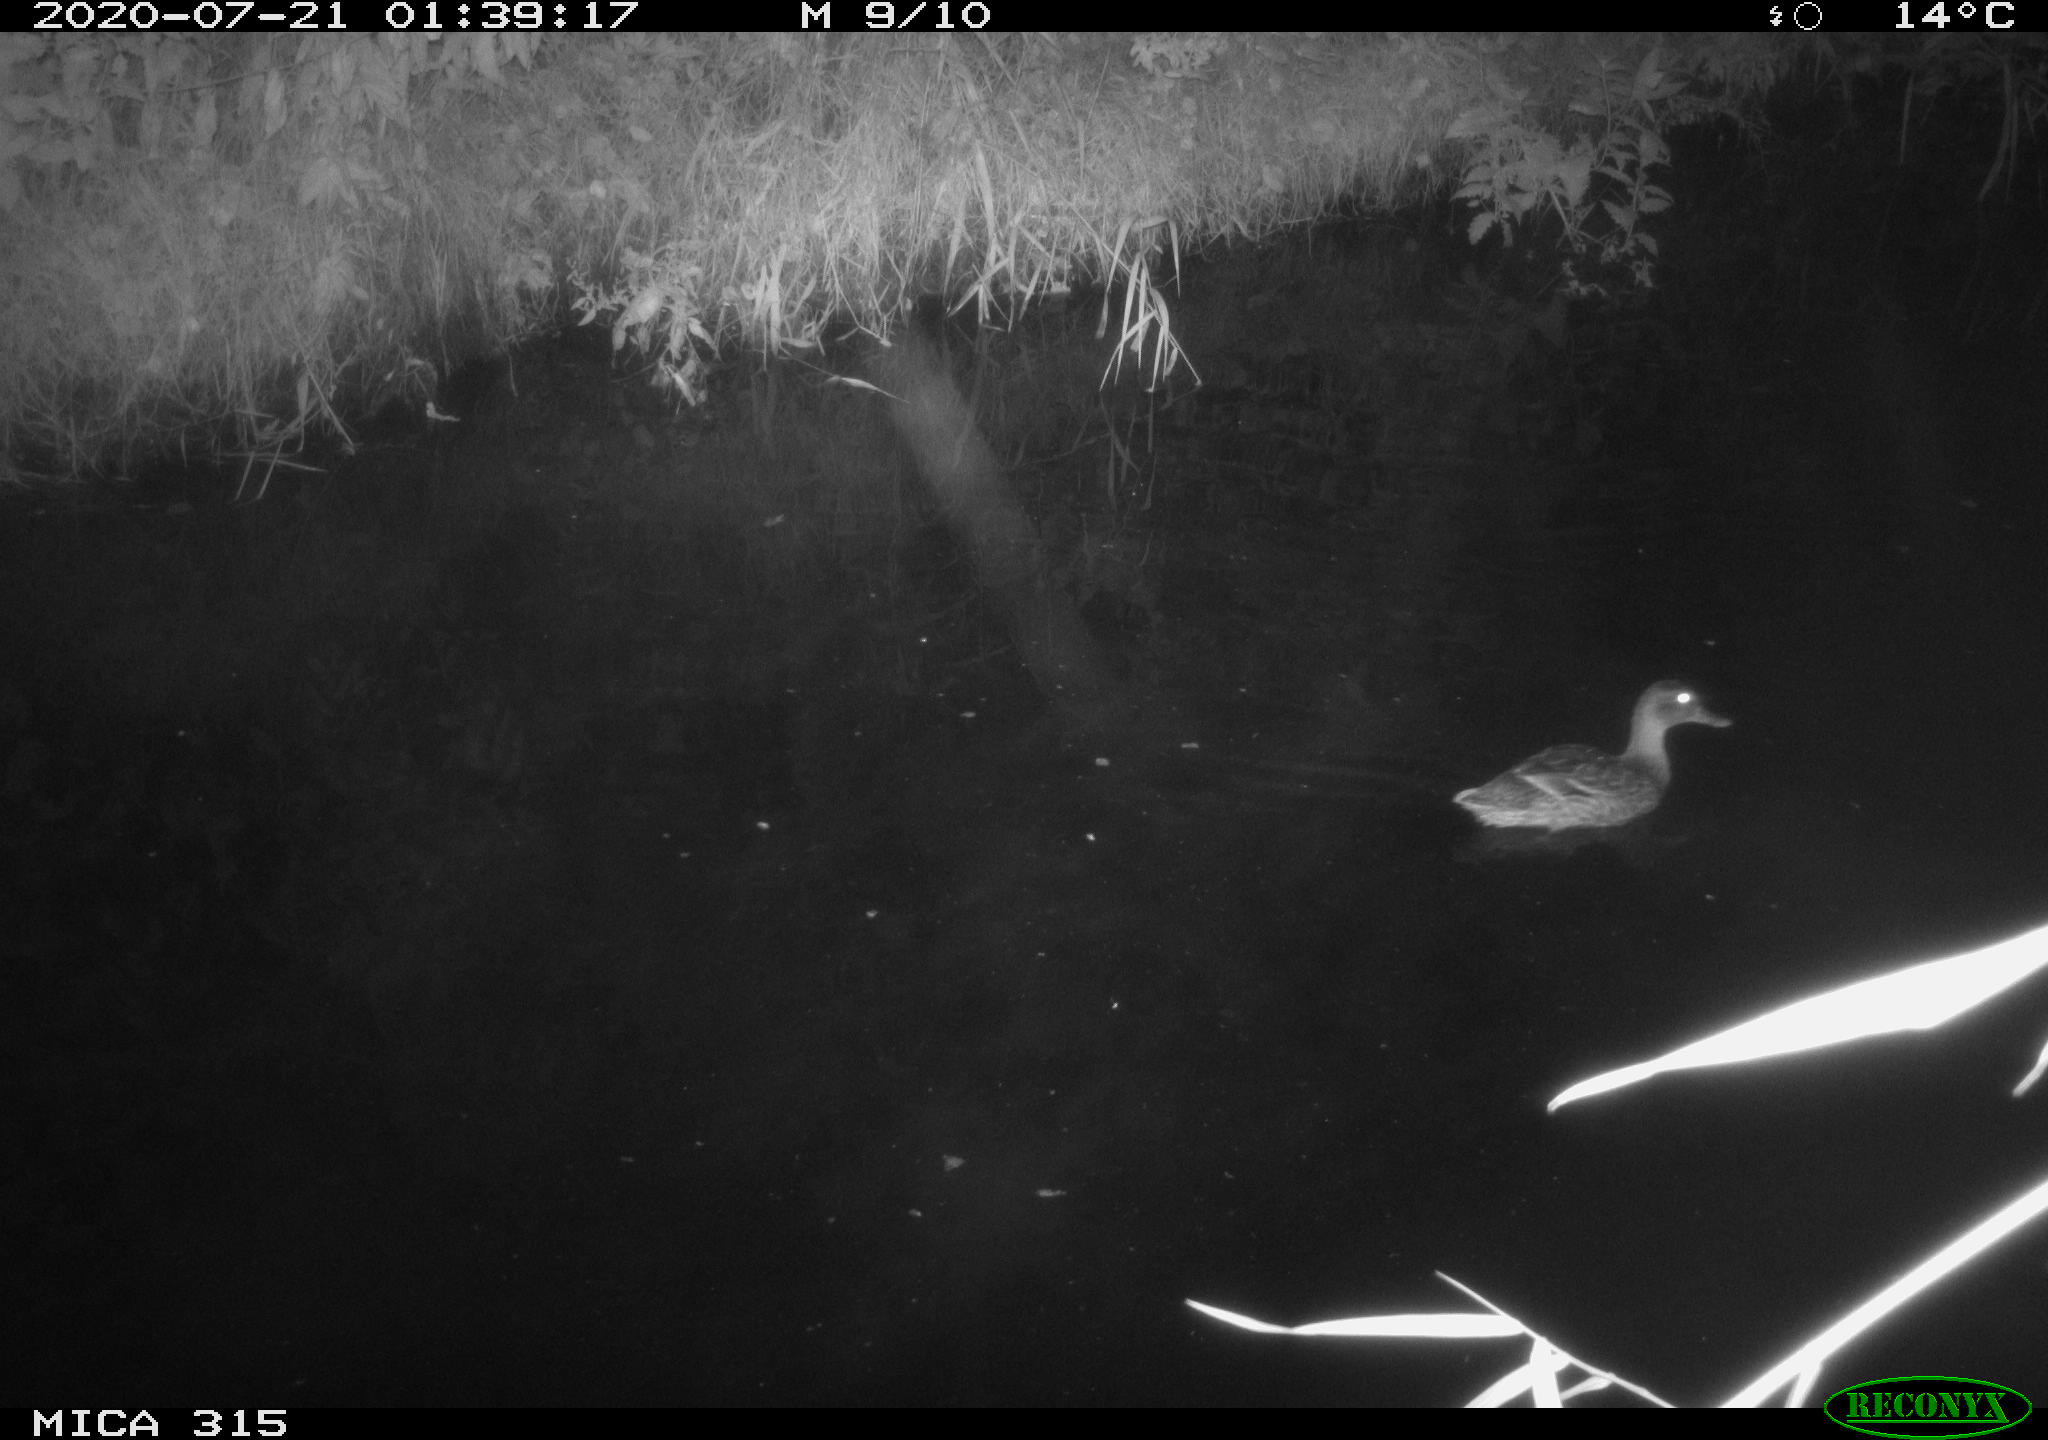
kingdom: Animalia
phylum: Chordata
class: Aves
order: Anseriformes
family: Anatidae
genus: Anas
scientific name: Anas platyrhynchos
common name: Mallard
